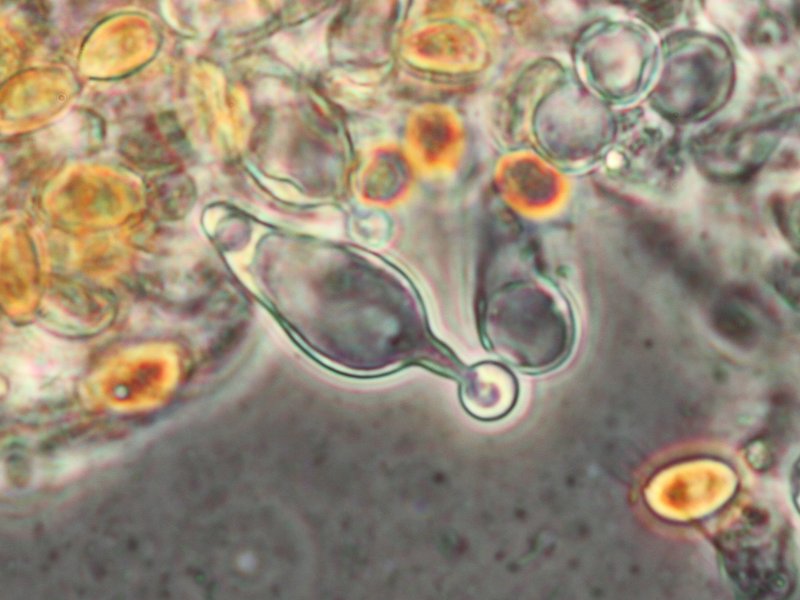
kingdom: Fungi
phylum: Basidiomycota
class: Agaricomycetes
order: Agaricales
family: Bolbitiaceae
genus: Conocybe
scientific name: Conocybe brachypodii
